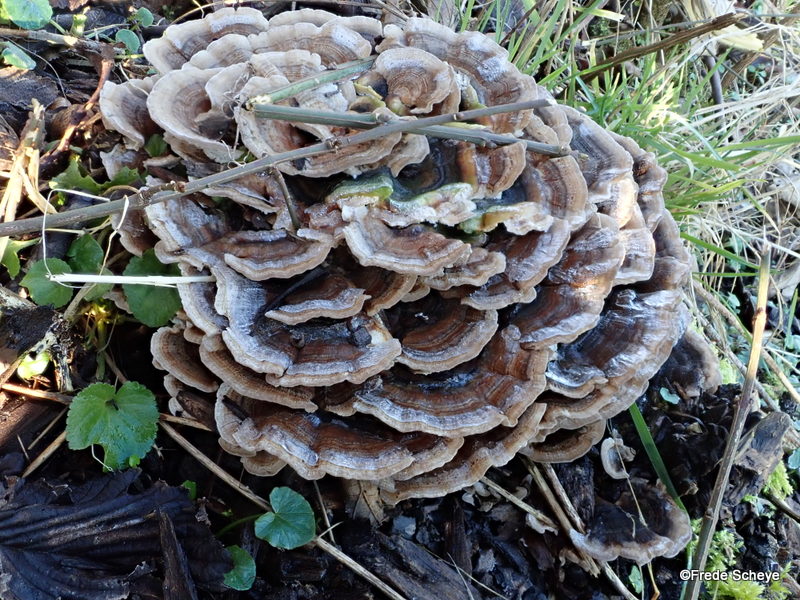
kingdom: Fungi
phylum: Basidiomycota
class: Agaricomycetes
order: Polyporales
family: Polyporaceae
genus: Trametes
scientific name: Trametes versicolor
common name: broget læderporesvamp
